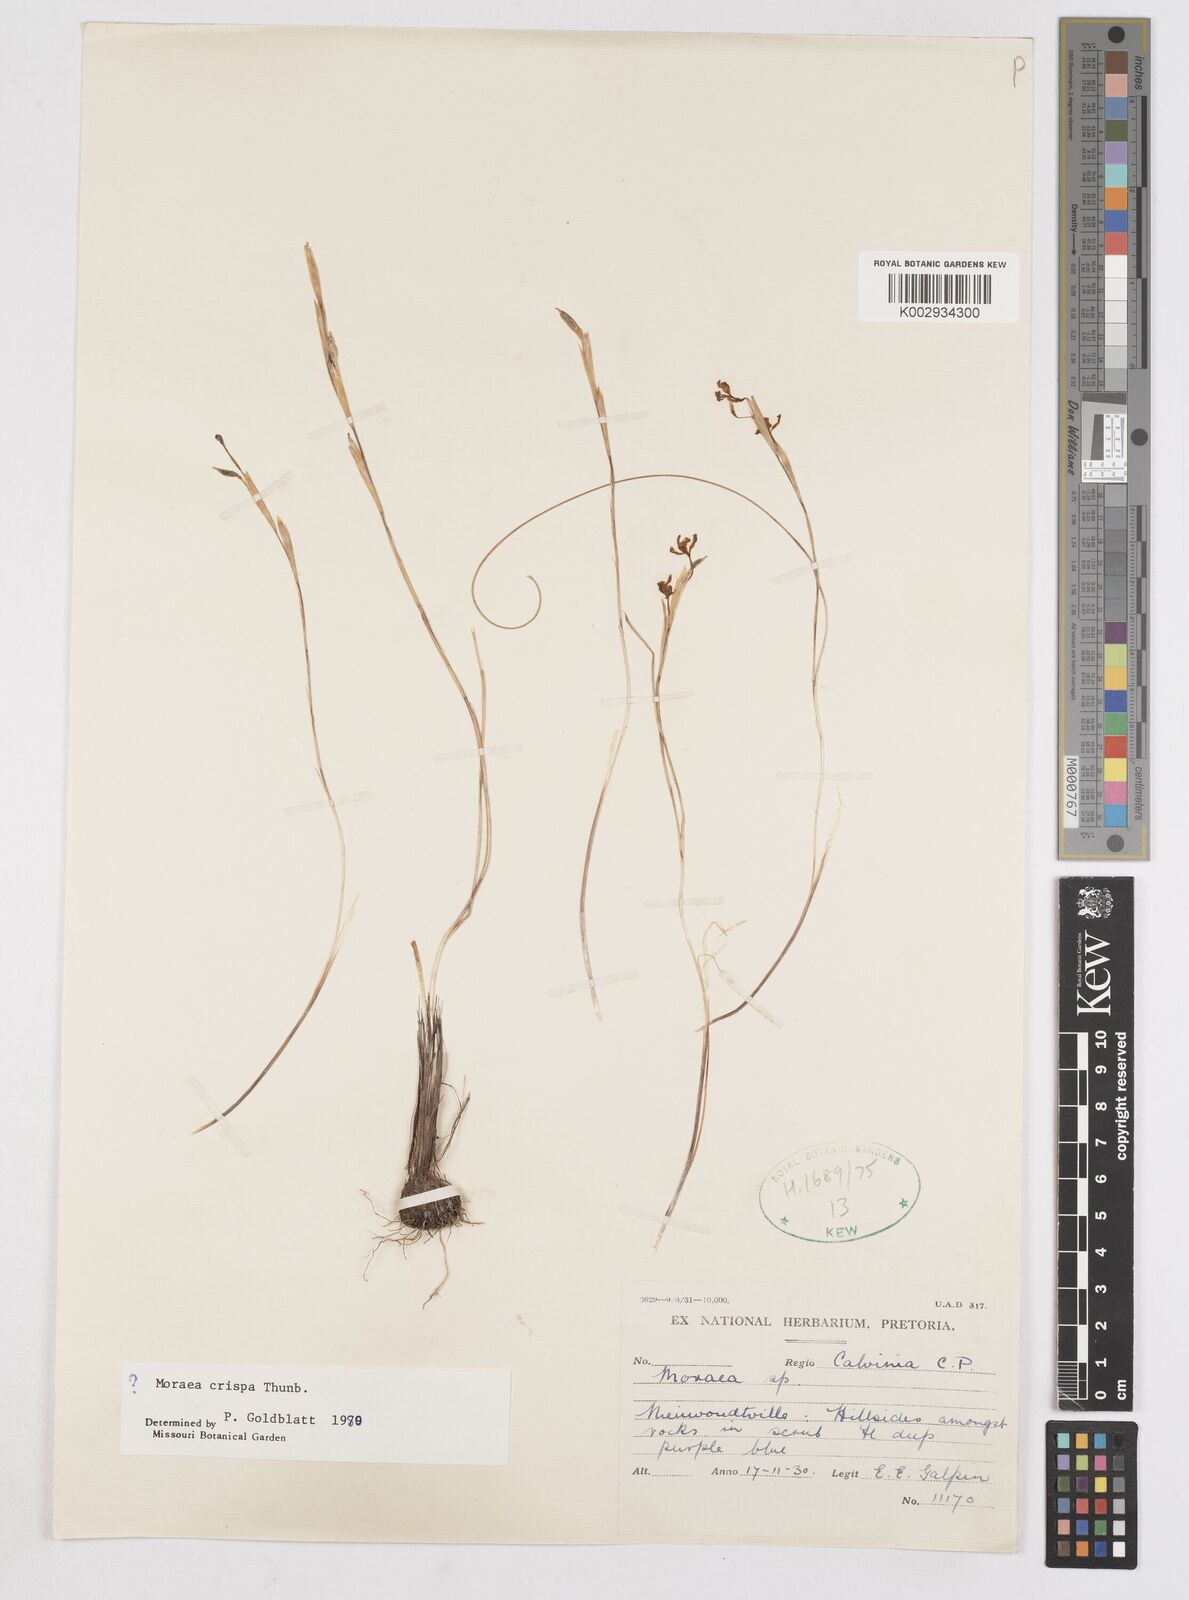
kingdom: Plantae
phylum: Tracheophyta
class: Liliopsida
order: Asparagales
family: Iridaceae
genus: Moraea
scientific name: Moraea crispa
